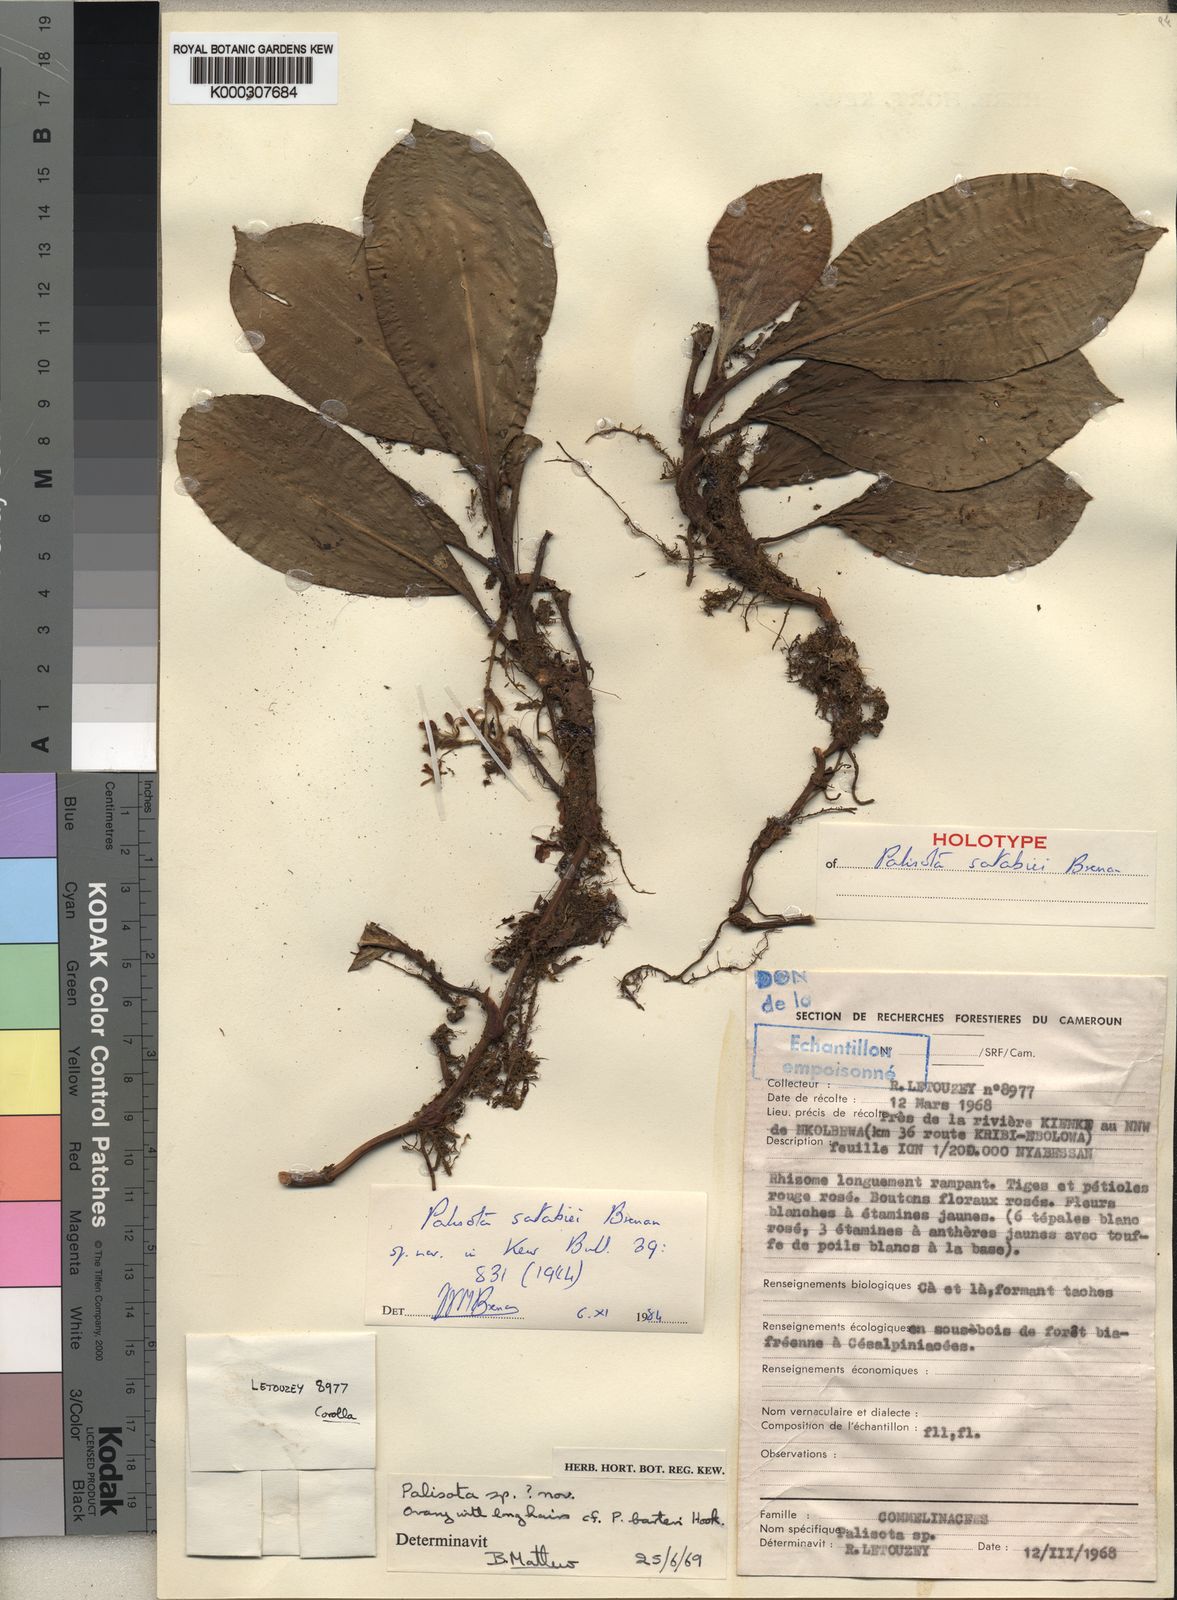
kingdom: Plantae
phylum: Tracheophyta
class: Liliopsida
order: Commelinales
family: Commelinaceae
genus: Palisota
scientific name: Palisota satabiei
